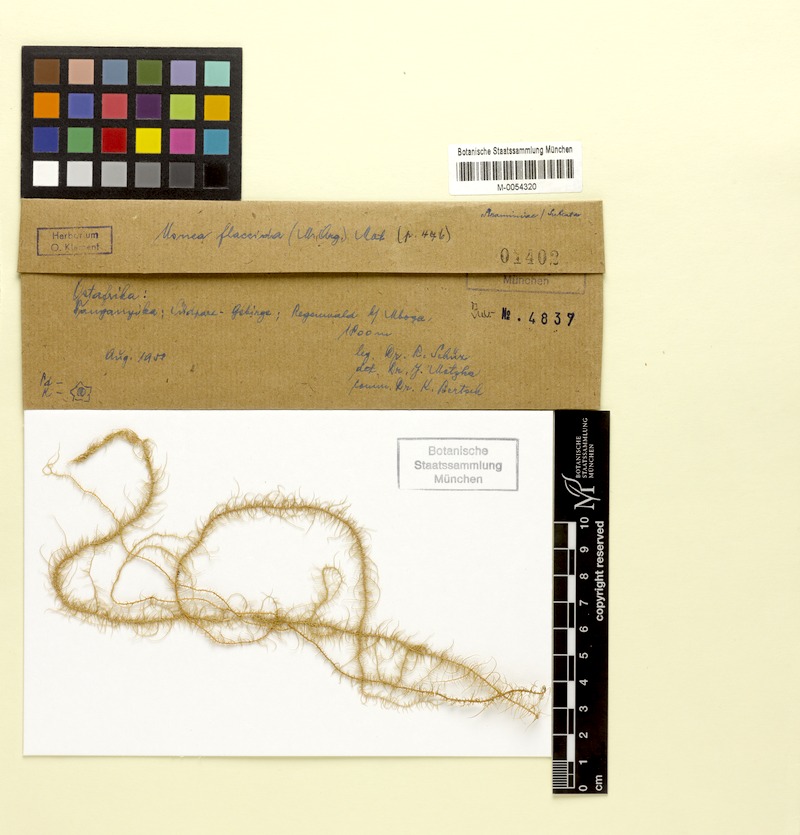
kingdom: Fungi
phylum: Ascomycota
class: Lecanoromycetes
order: Lecanorales
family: Parmeliaceae
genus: Xanthoparmelia
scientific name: Xanthoparmelia amplexula
